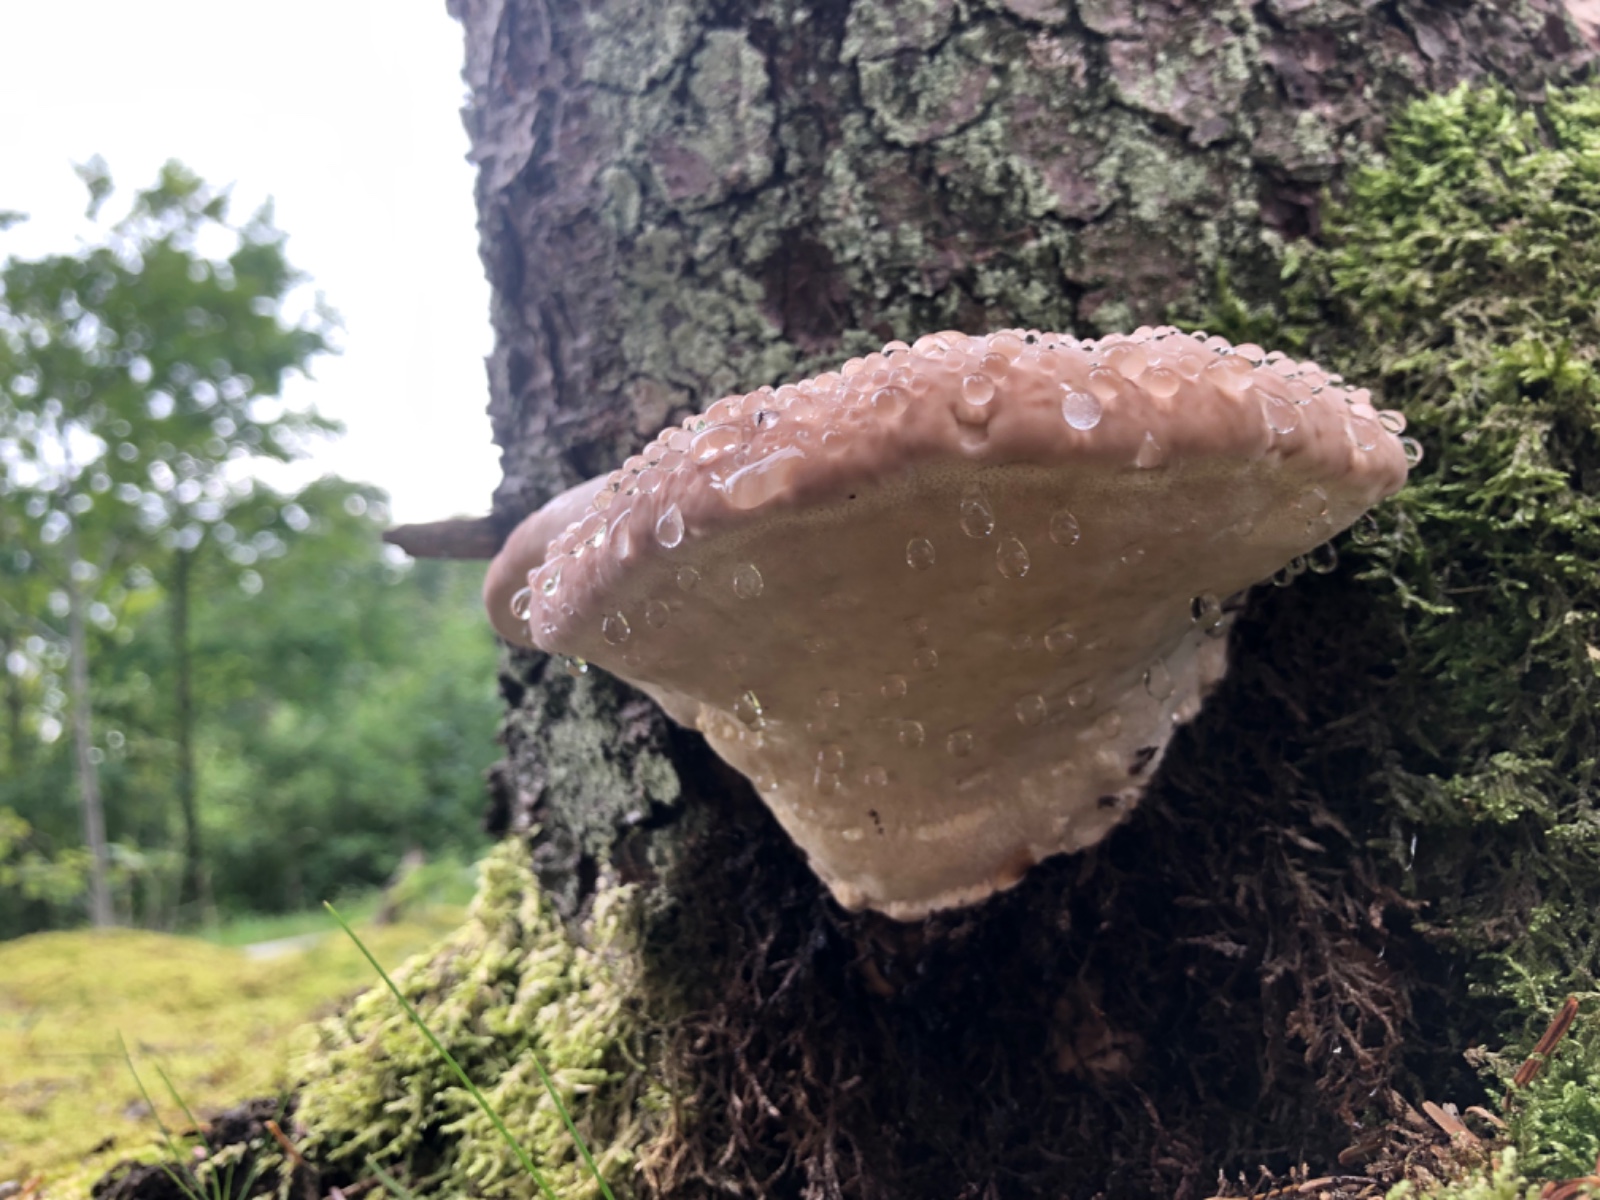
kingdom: Fungi
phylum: Basidiomycota
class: Agaricomycetes
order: Polyporales
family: Fomitopsidaceae
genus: Fomitopsis
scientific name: Fomitopsis pinicola
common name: randbæltet hovporesvamp
